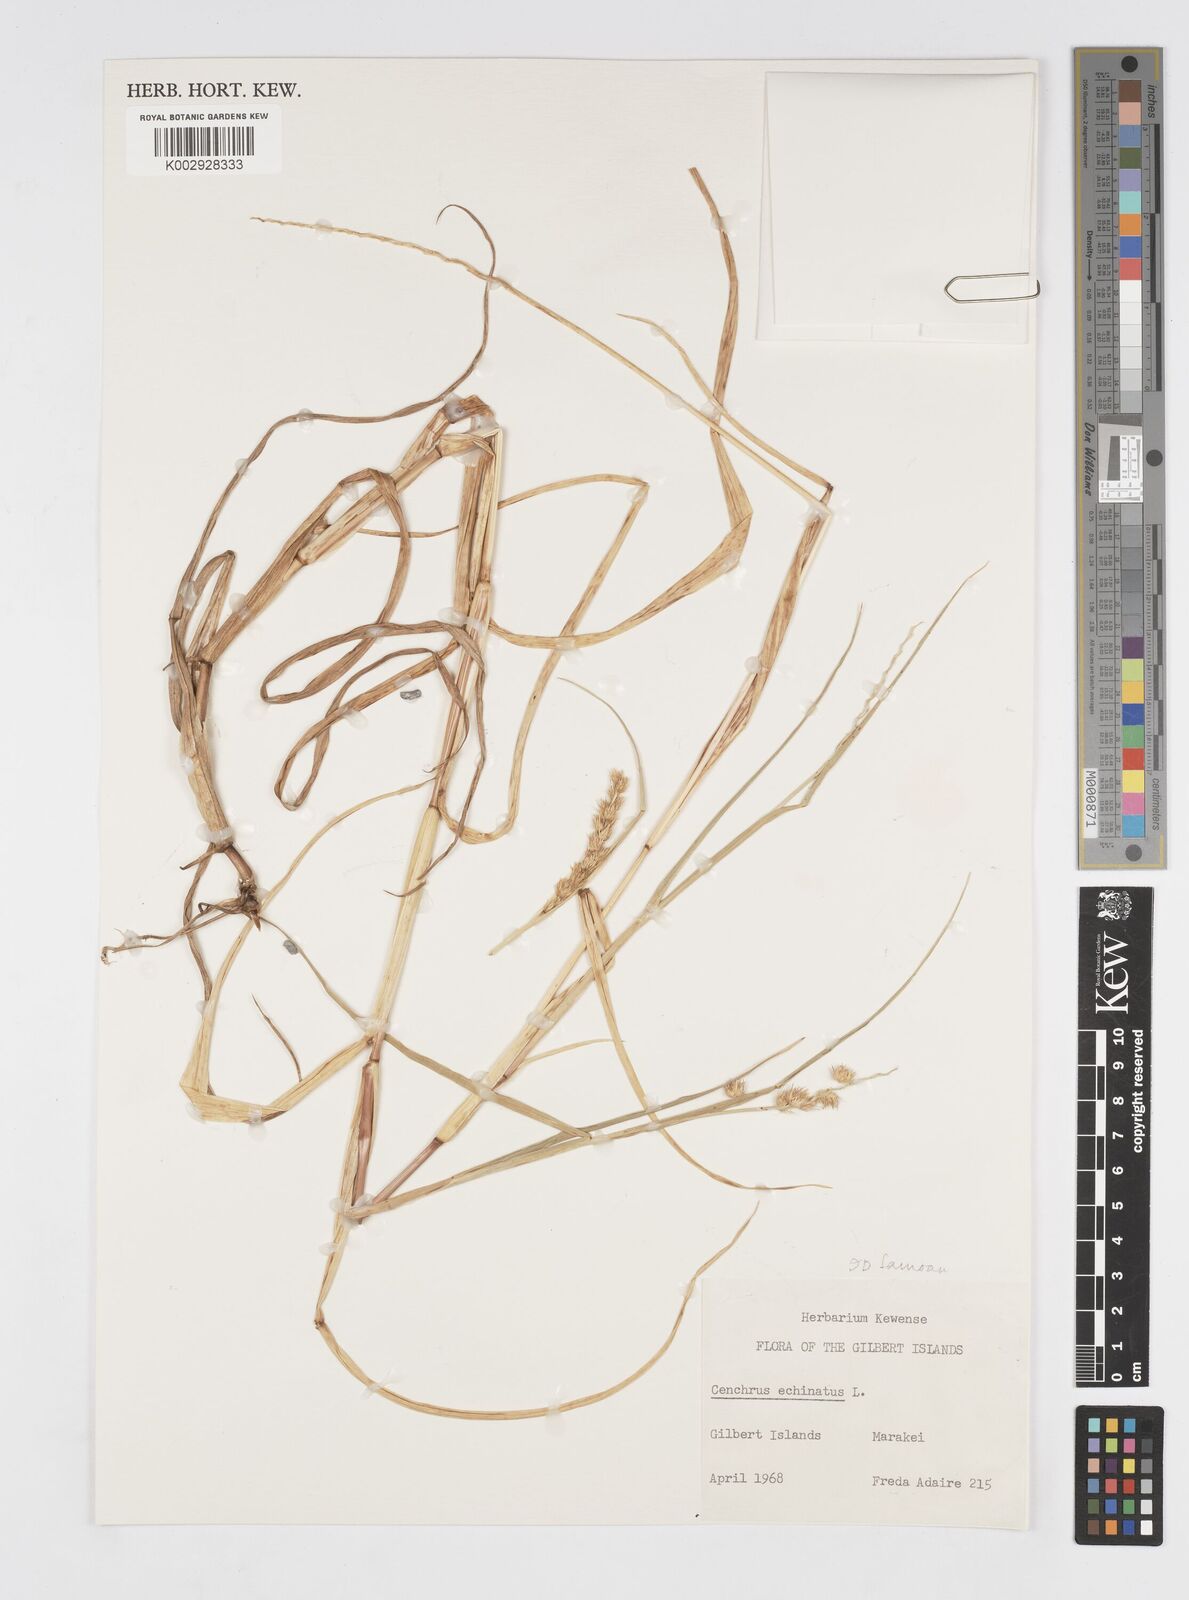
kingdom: Plantae
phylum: Tracheophyta
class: Liliopsida
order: Poales
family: Poaceae
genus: Cenchrus
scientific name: Cenchrus echinatus
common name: Southern sandbur
